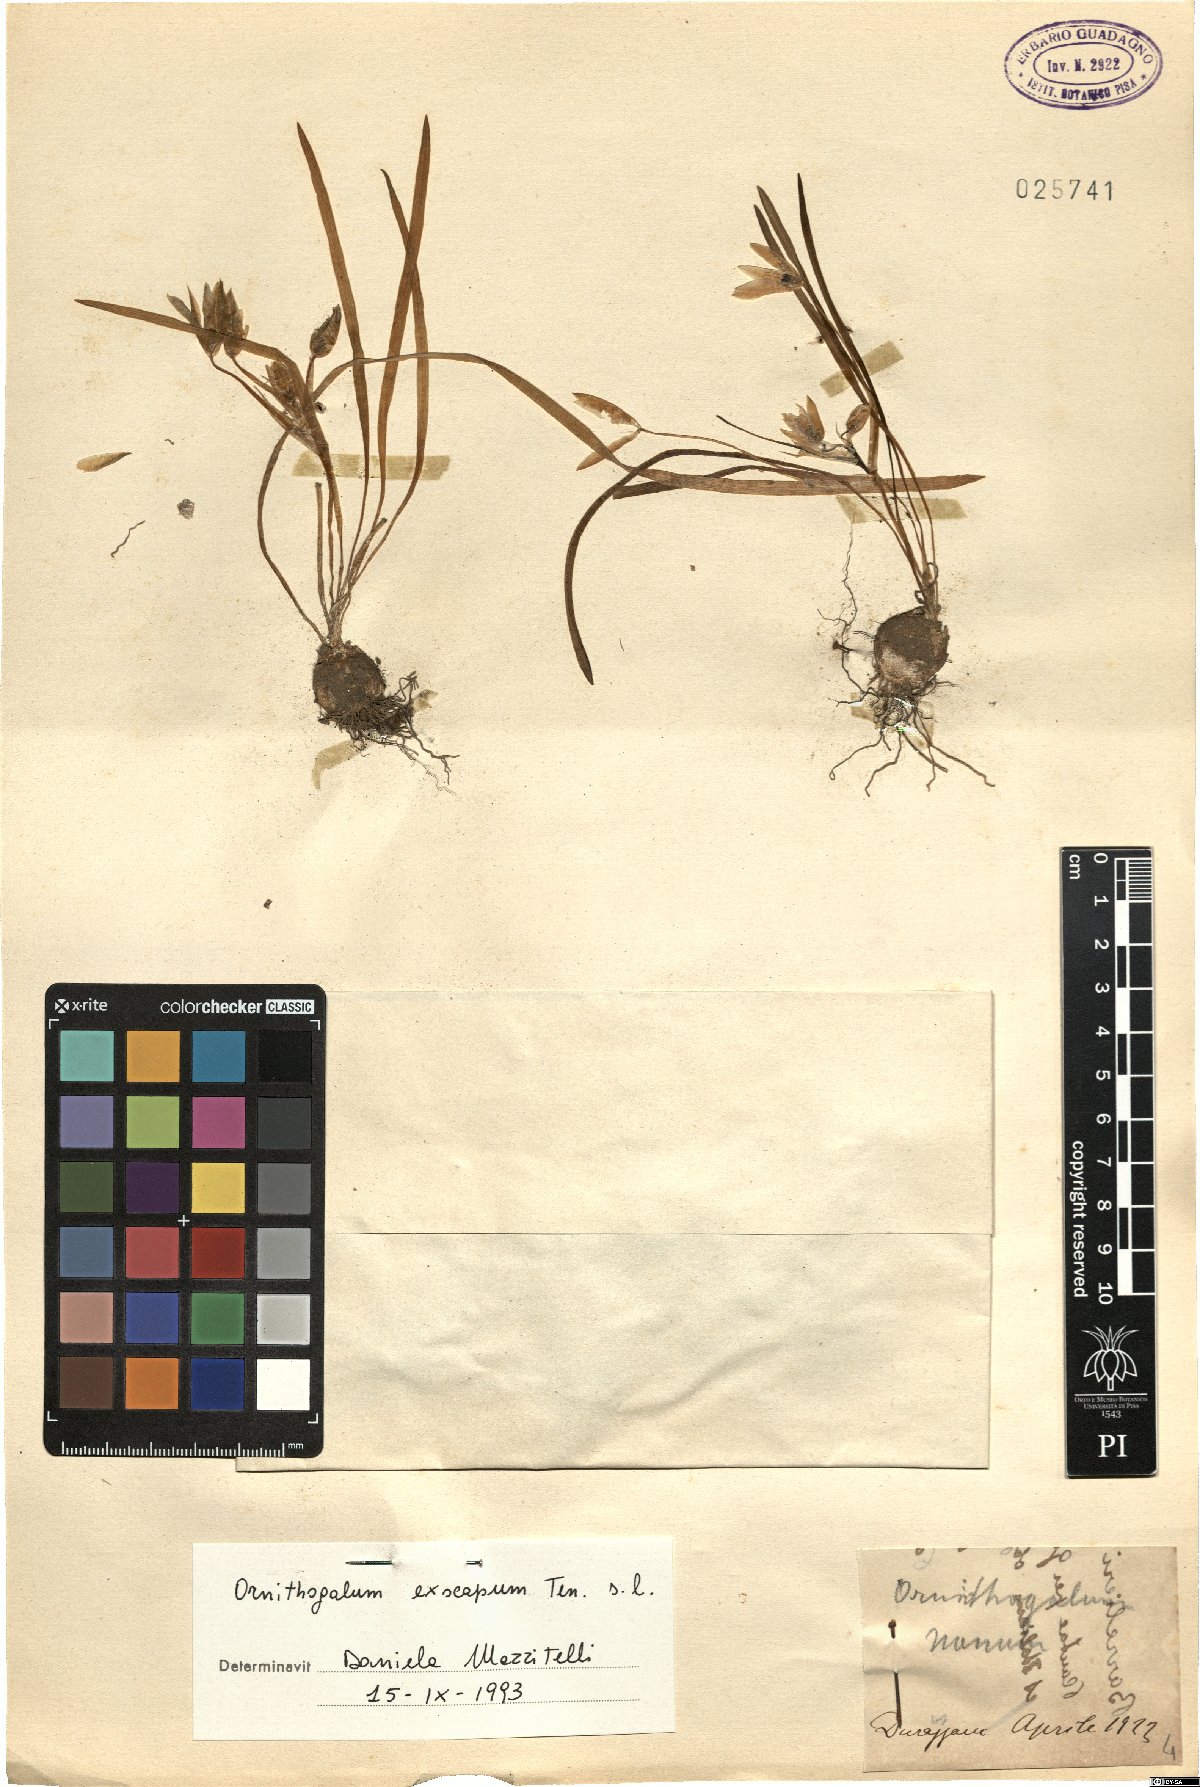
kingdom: Plantae
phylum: Tracheophyta
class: Liliopsida
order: Asparagales
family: Asparagaceae
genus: Ornithogalum
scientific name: Ornithogalum exscapum
